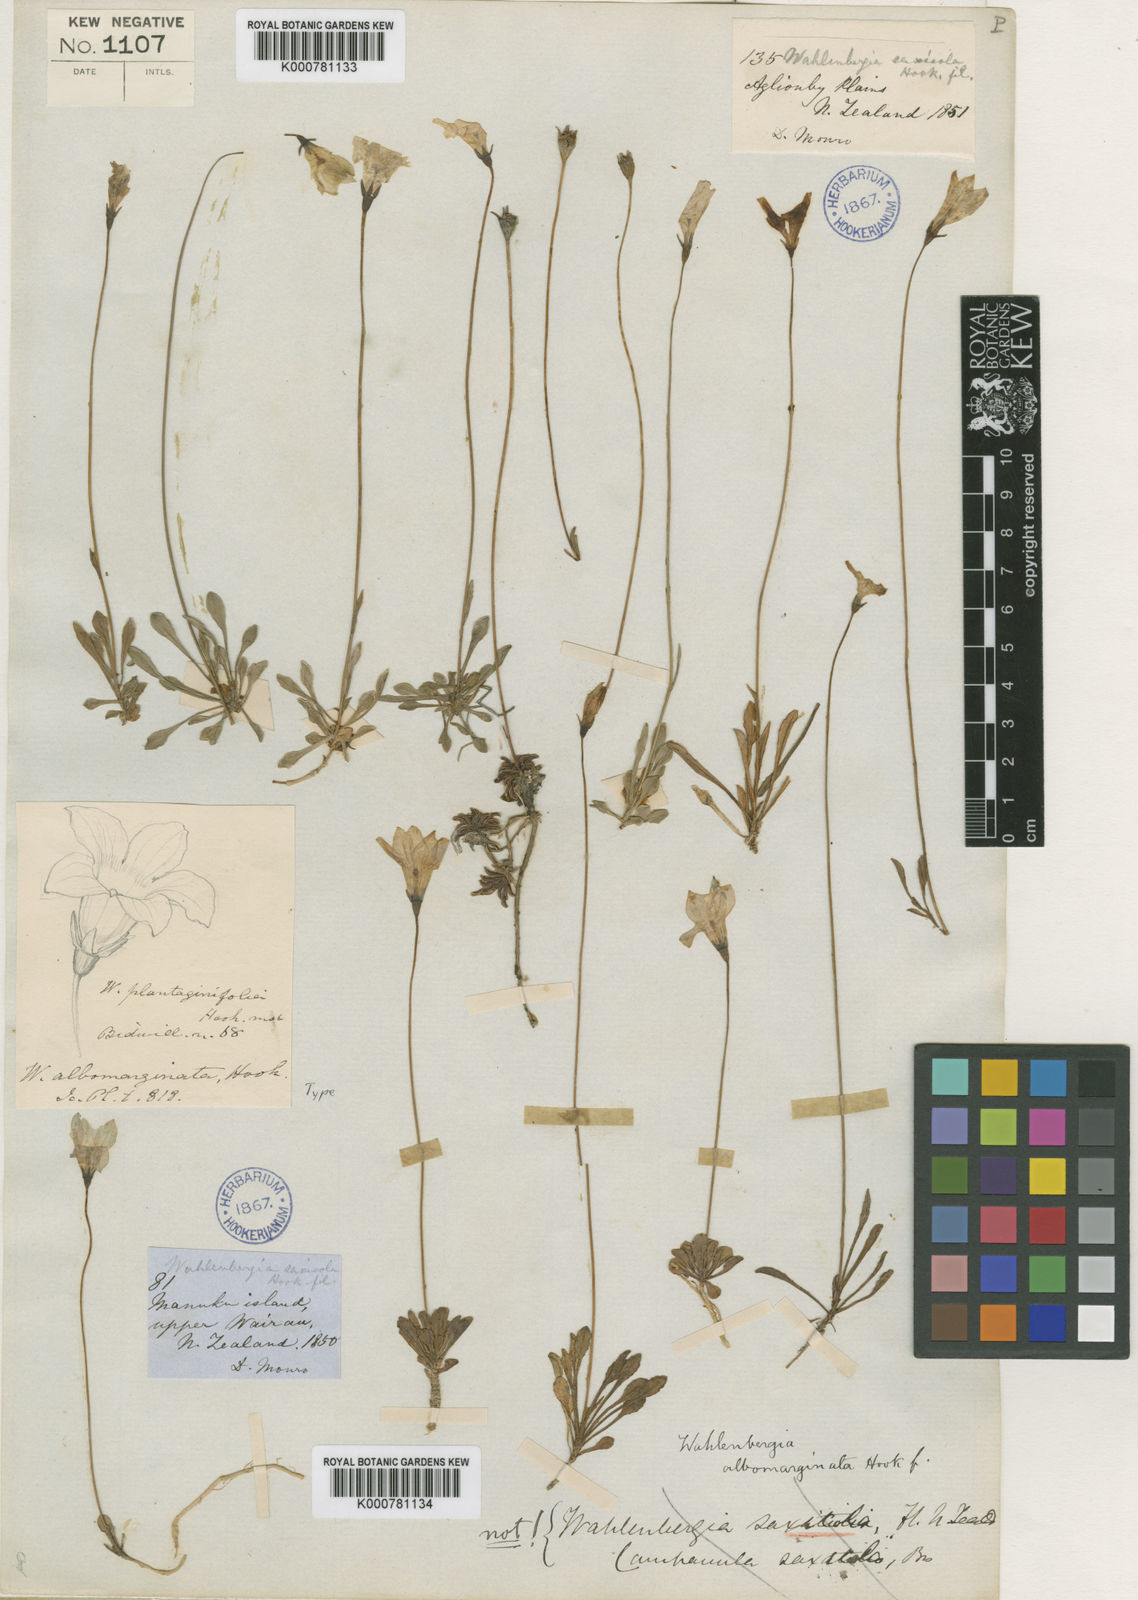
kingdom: Plantae
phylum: Tracheophyta
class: Magnoliopsida
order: Asterales
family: Campanulaceae
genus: Wahlenbergia
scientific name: Wahlenbergia albomarginata
